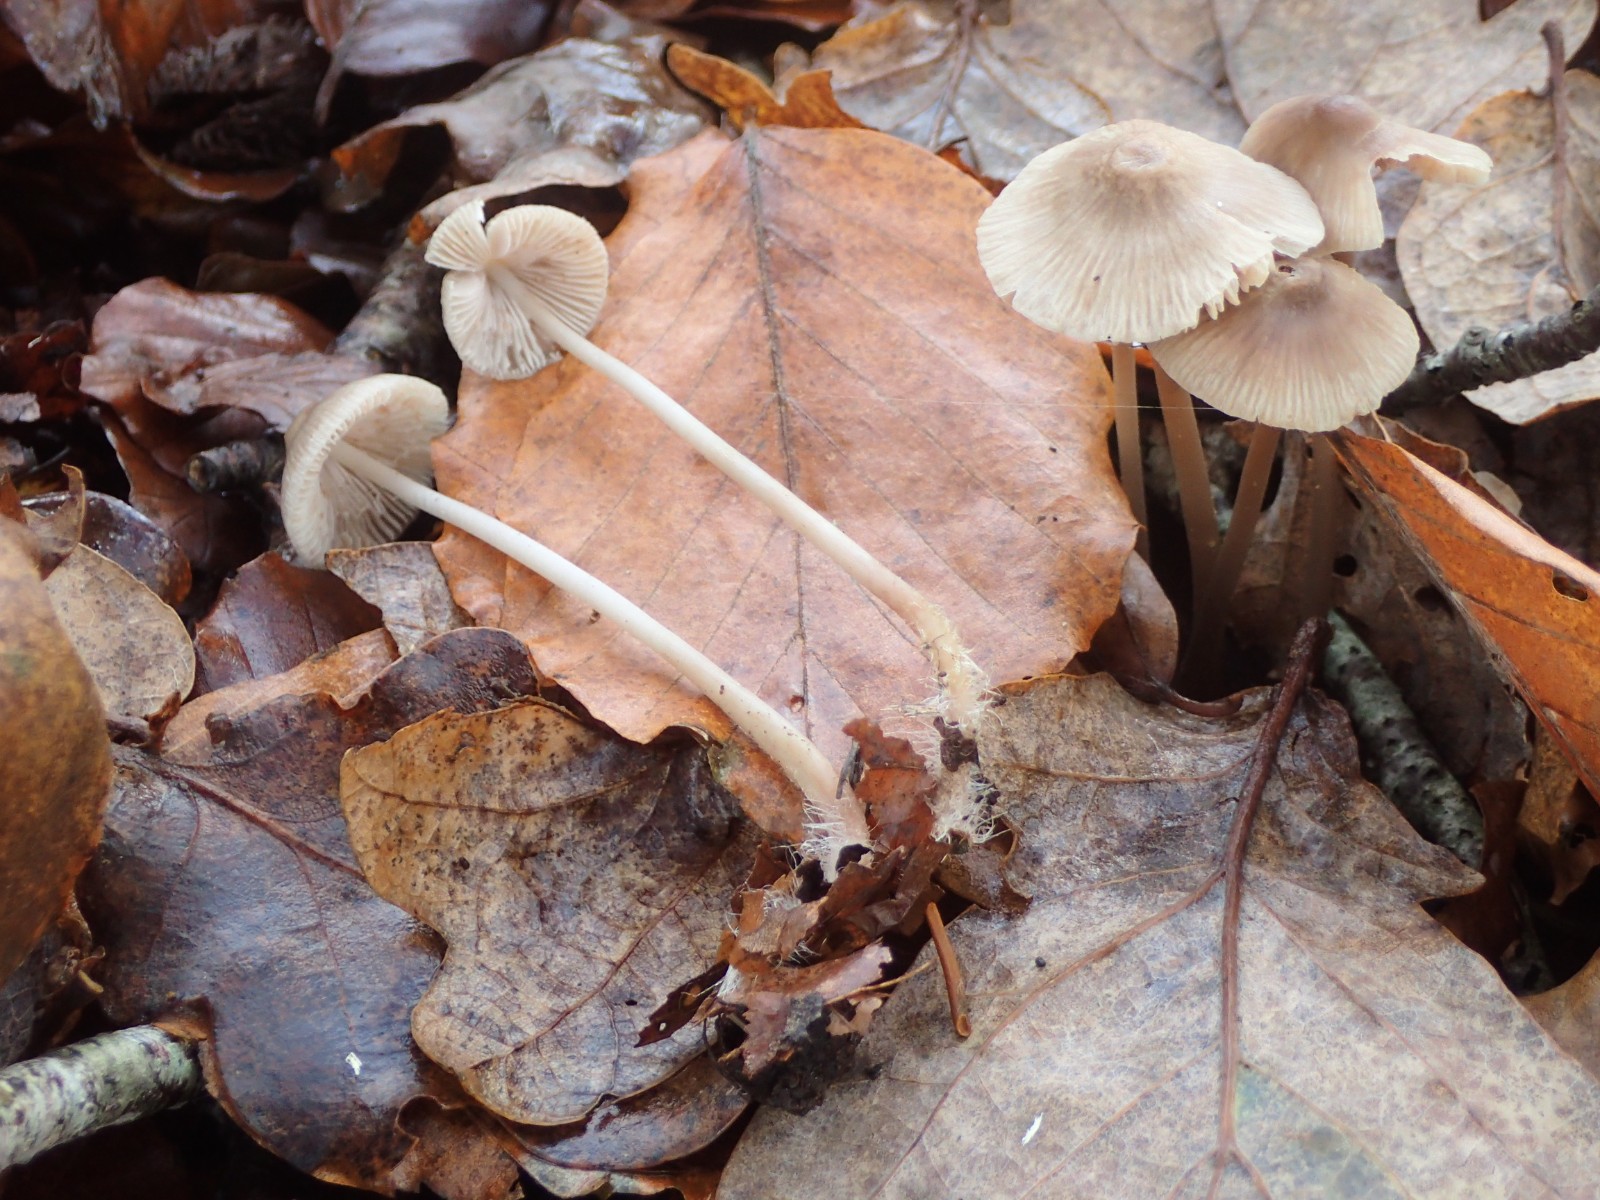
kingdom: Fungi
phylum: Basidiomycota
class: Agaricomycetes
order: Agaricales
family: Mycenaceae
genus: Mycena
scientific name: Mycena polygramma
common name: mangestribet huesvamp
